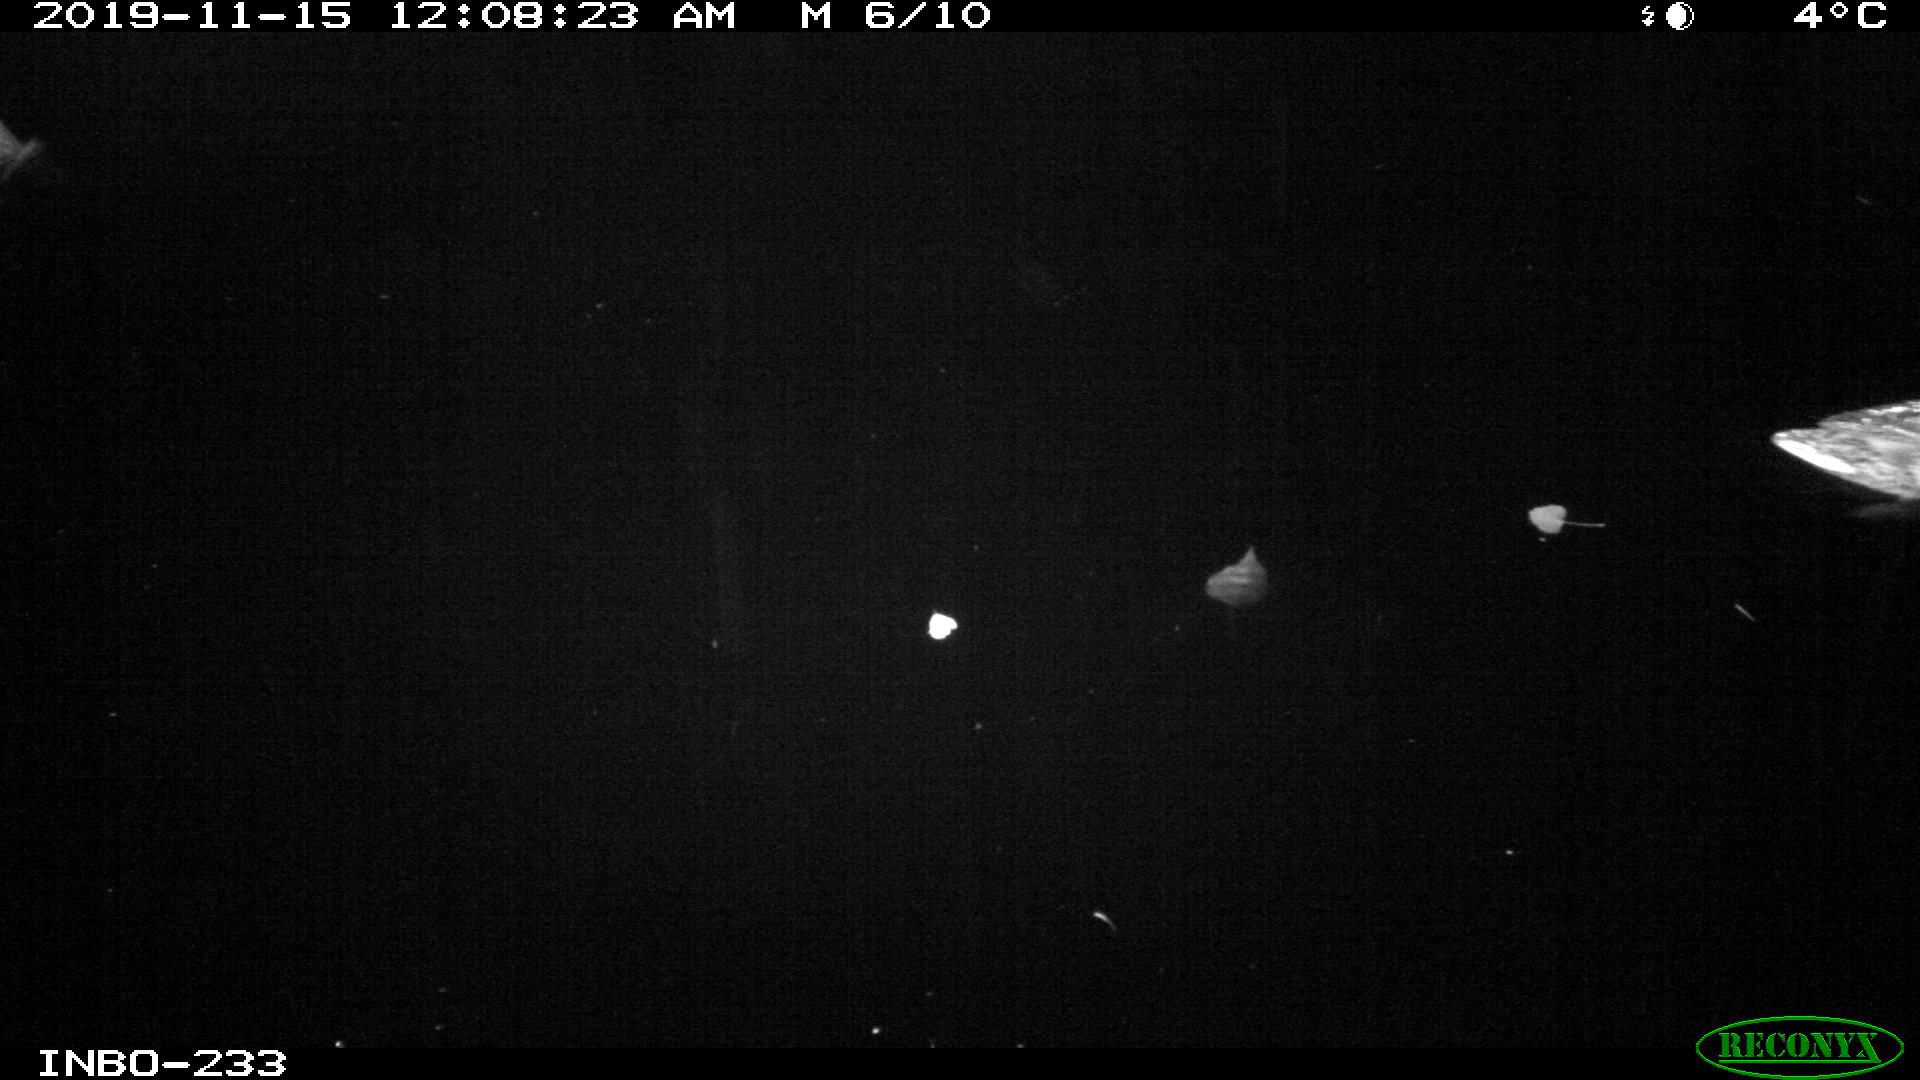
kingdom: Animalia
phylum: Chordata
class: Aves
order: Anseriformes
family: Anatidae
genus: Anas
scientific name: Anas platyrhynchos
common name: Mallard
